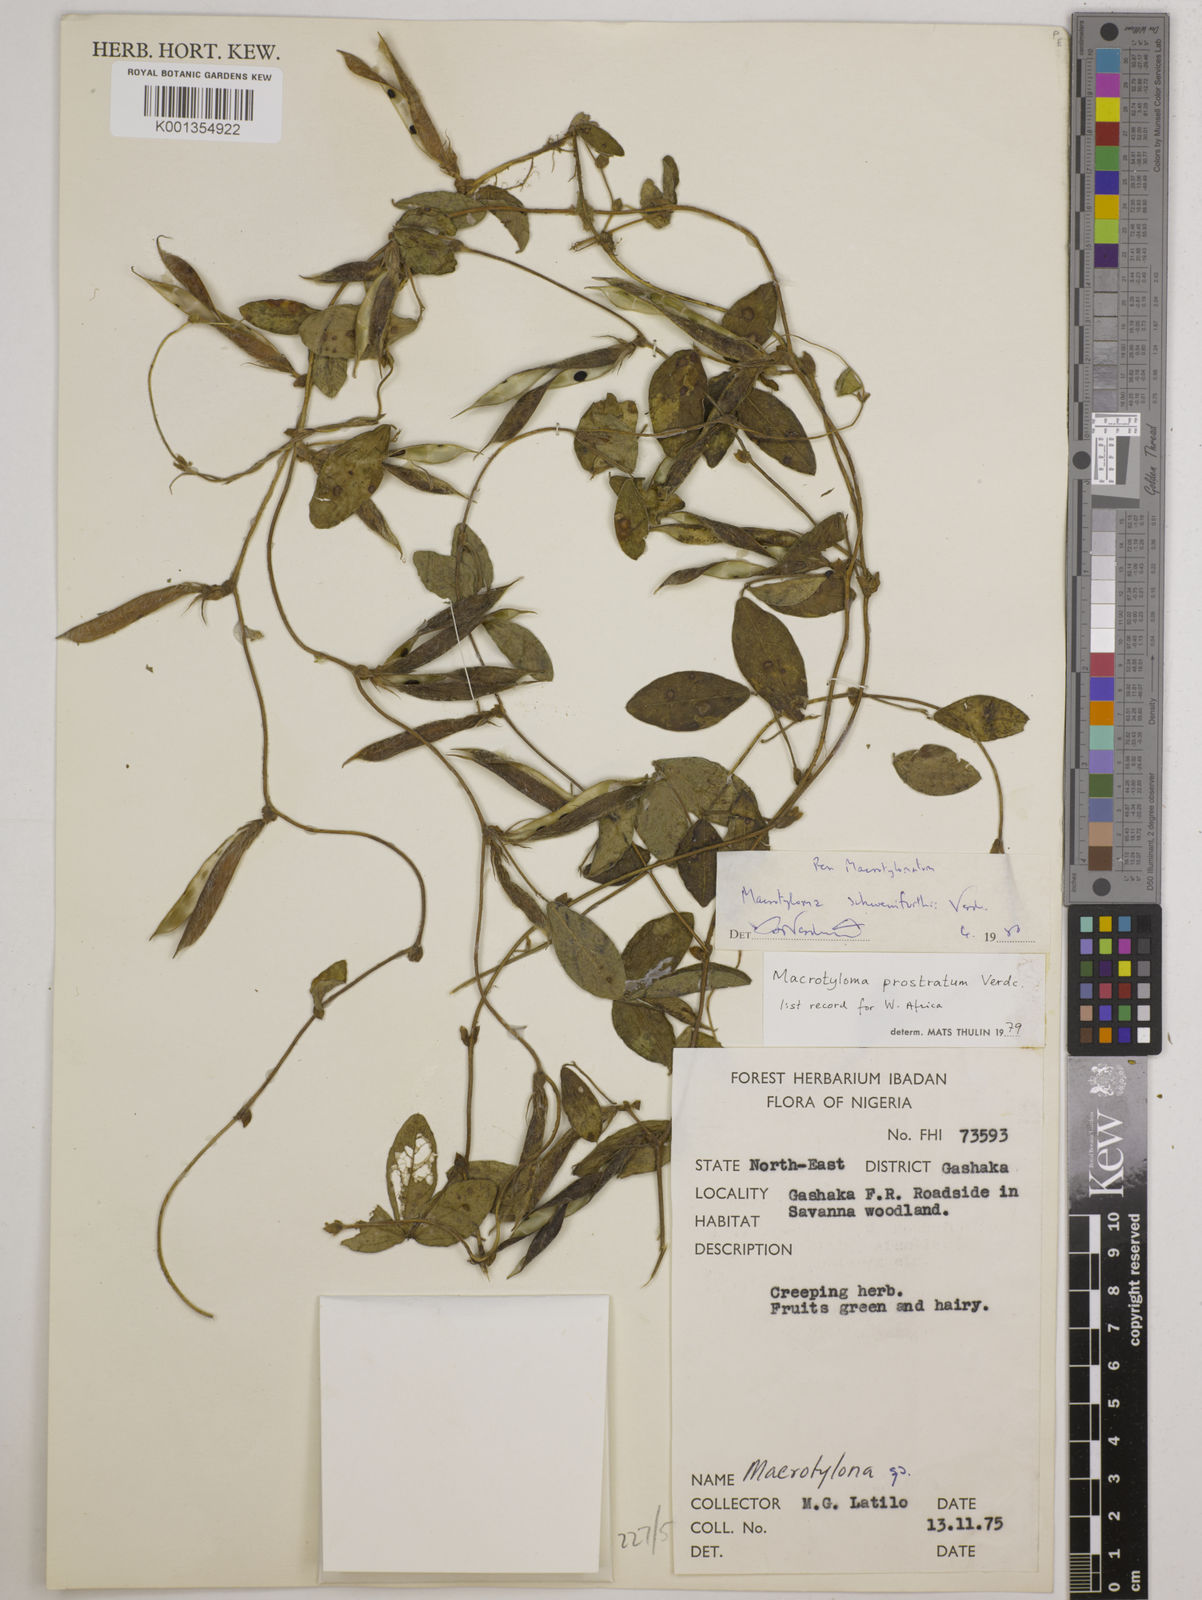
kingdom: Plantae
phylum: Tracheophyta
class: Magnoliopsida
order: Fabales
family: Fabaceae
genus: Macrotyloma
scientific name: Macrotyloma schweinfurthii
